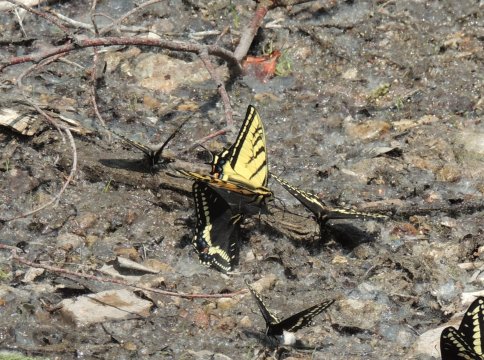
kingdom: Animalia
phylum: Arthropoda
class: Insecta
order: Lepidoptera
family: Papilionidae
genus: Papilio
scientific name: Papilio multicaudata
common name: Two-tailed Swallowtail
